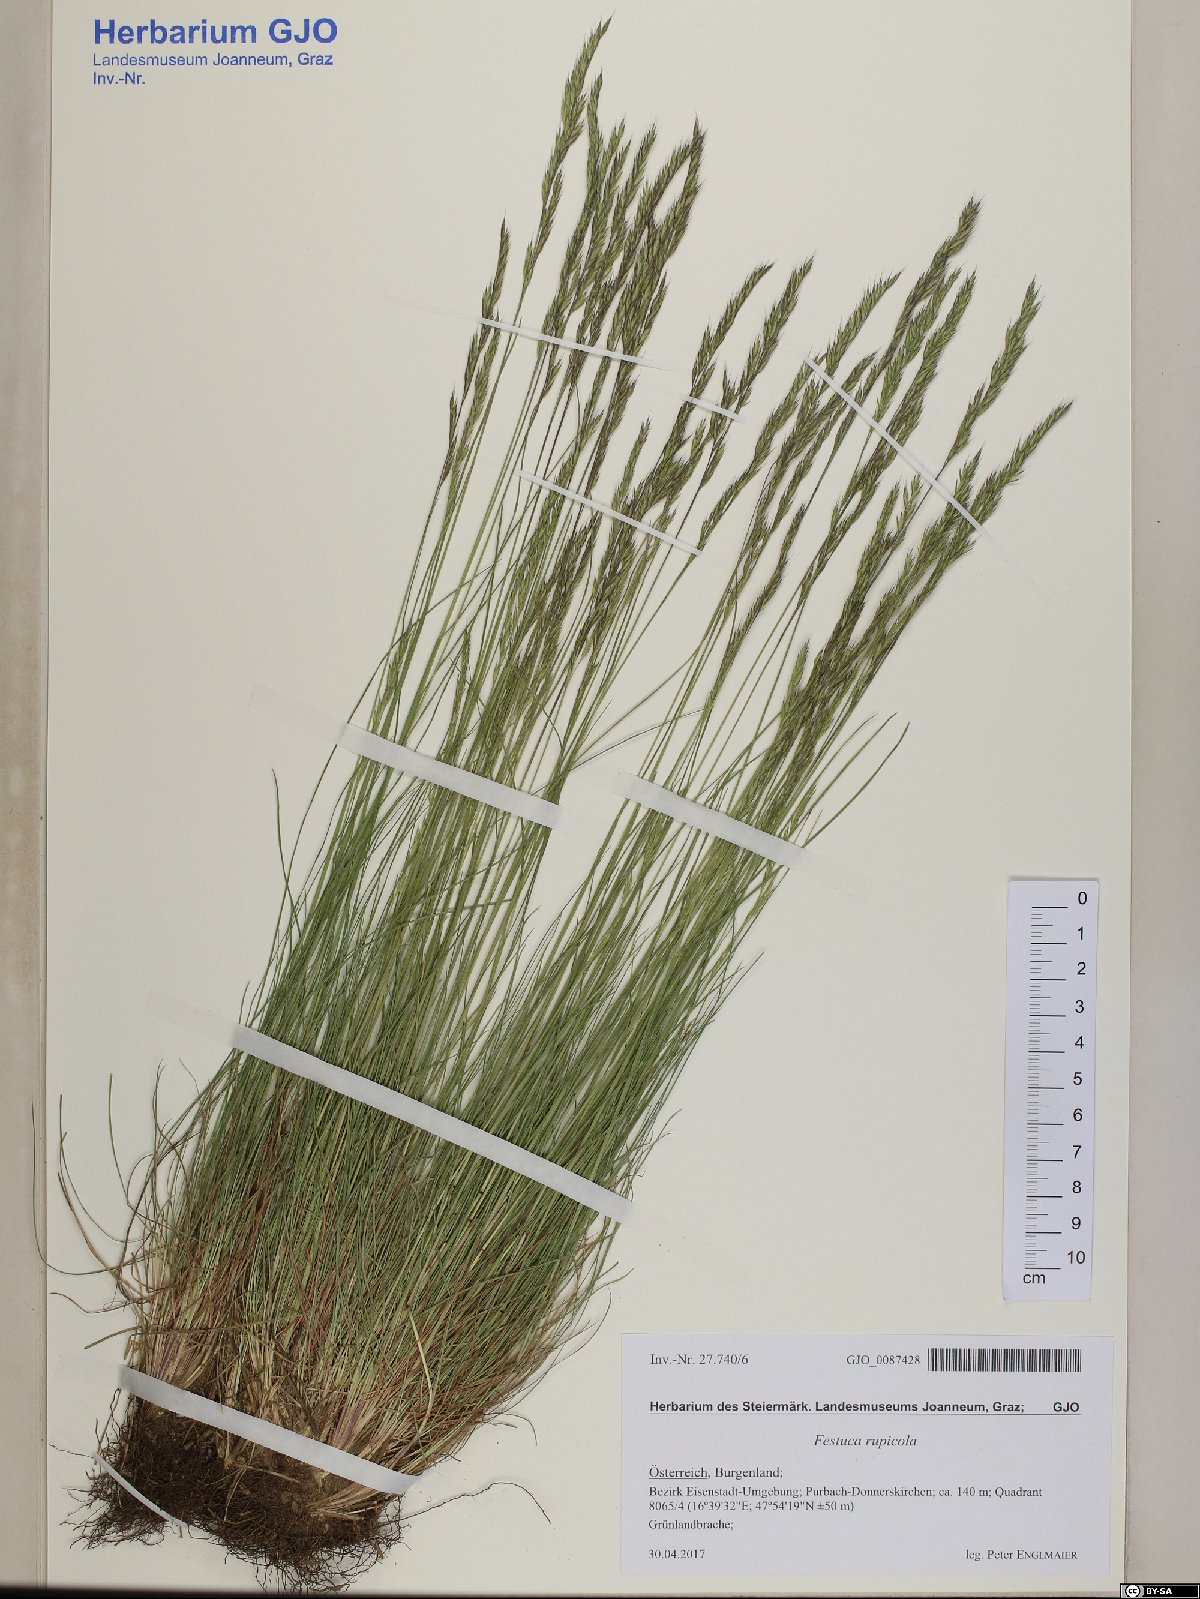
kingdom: Plantae
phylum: Tracheophyta
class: Liliopsida
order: Poales
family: Poaceae
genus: Festuca
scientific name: Festuca rupicola
